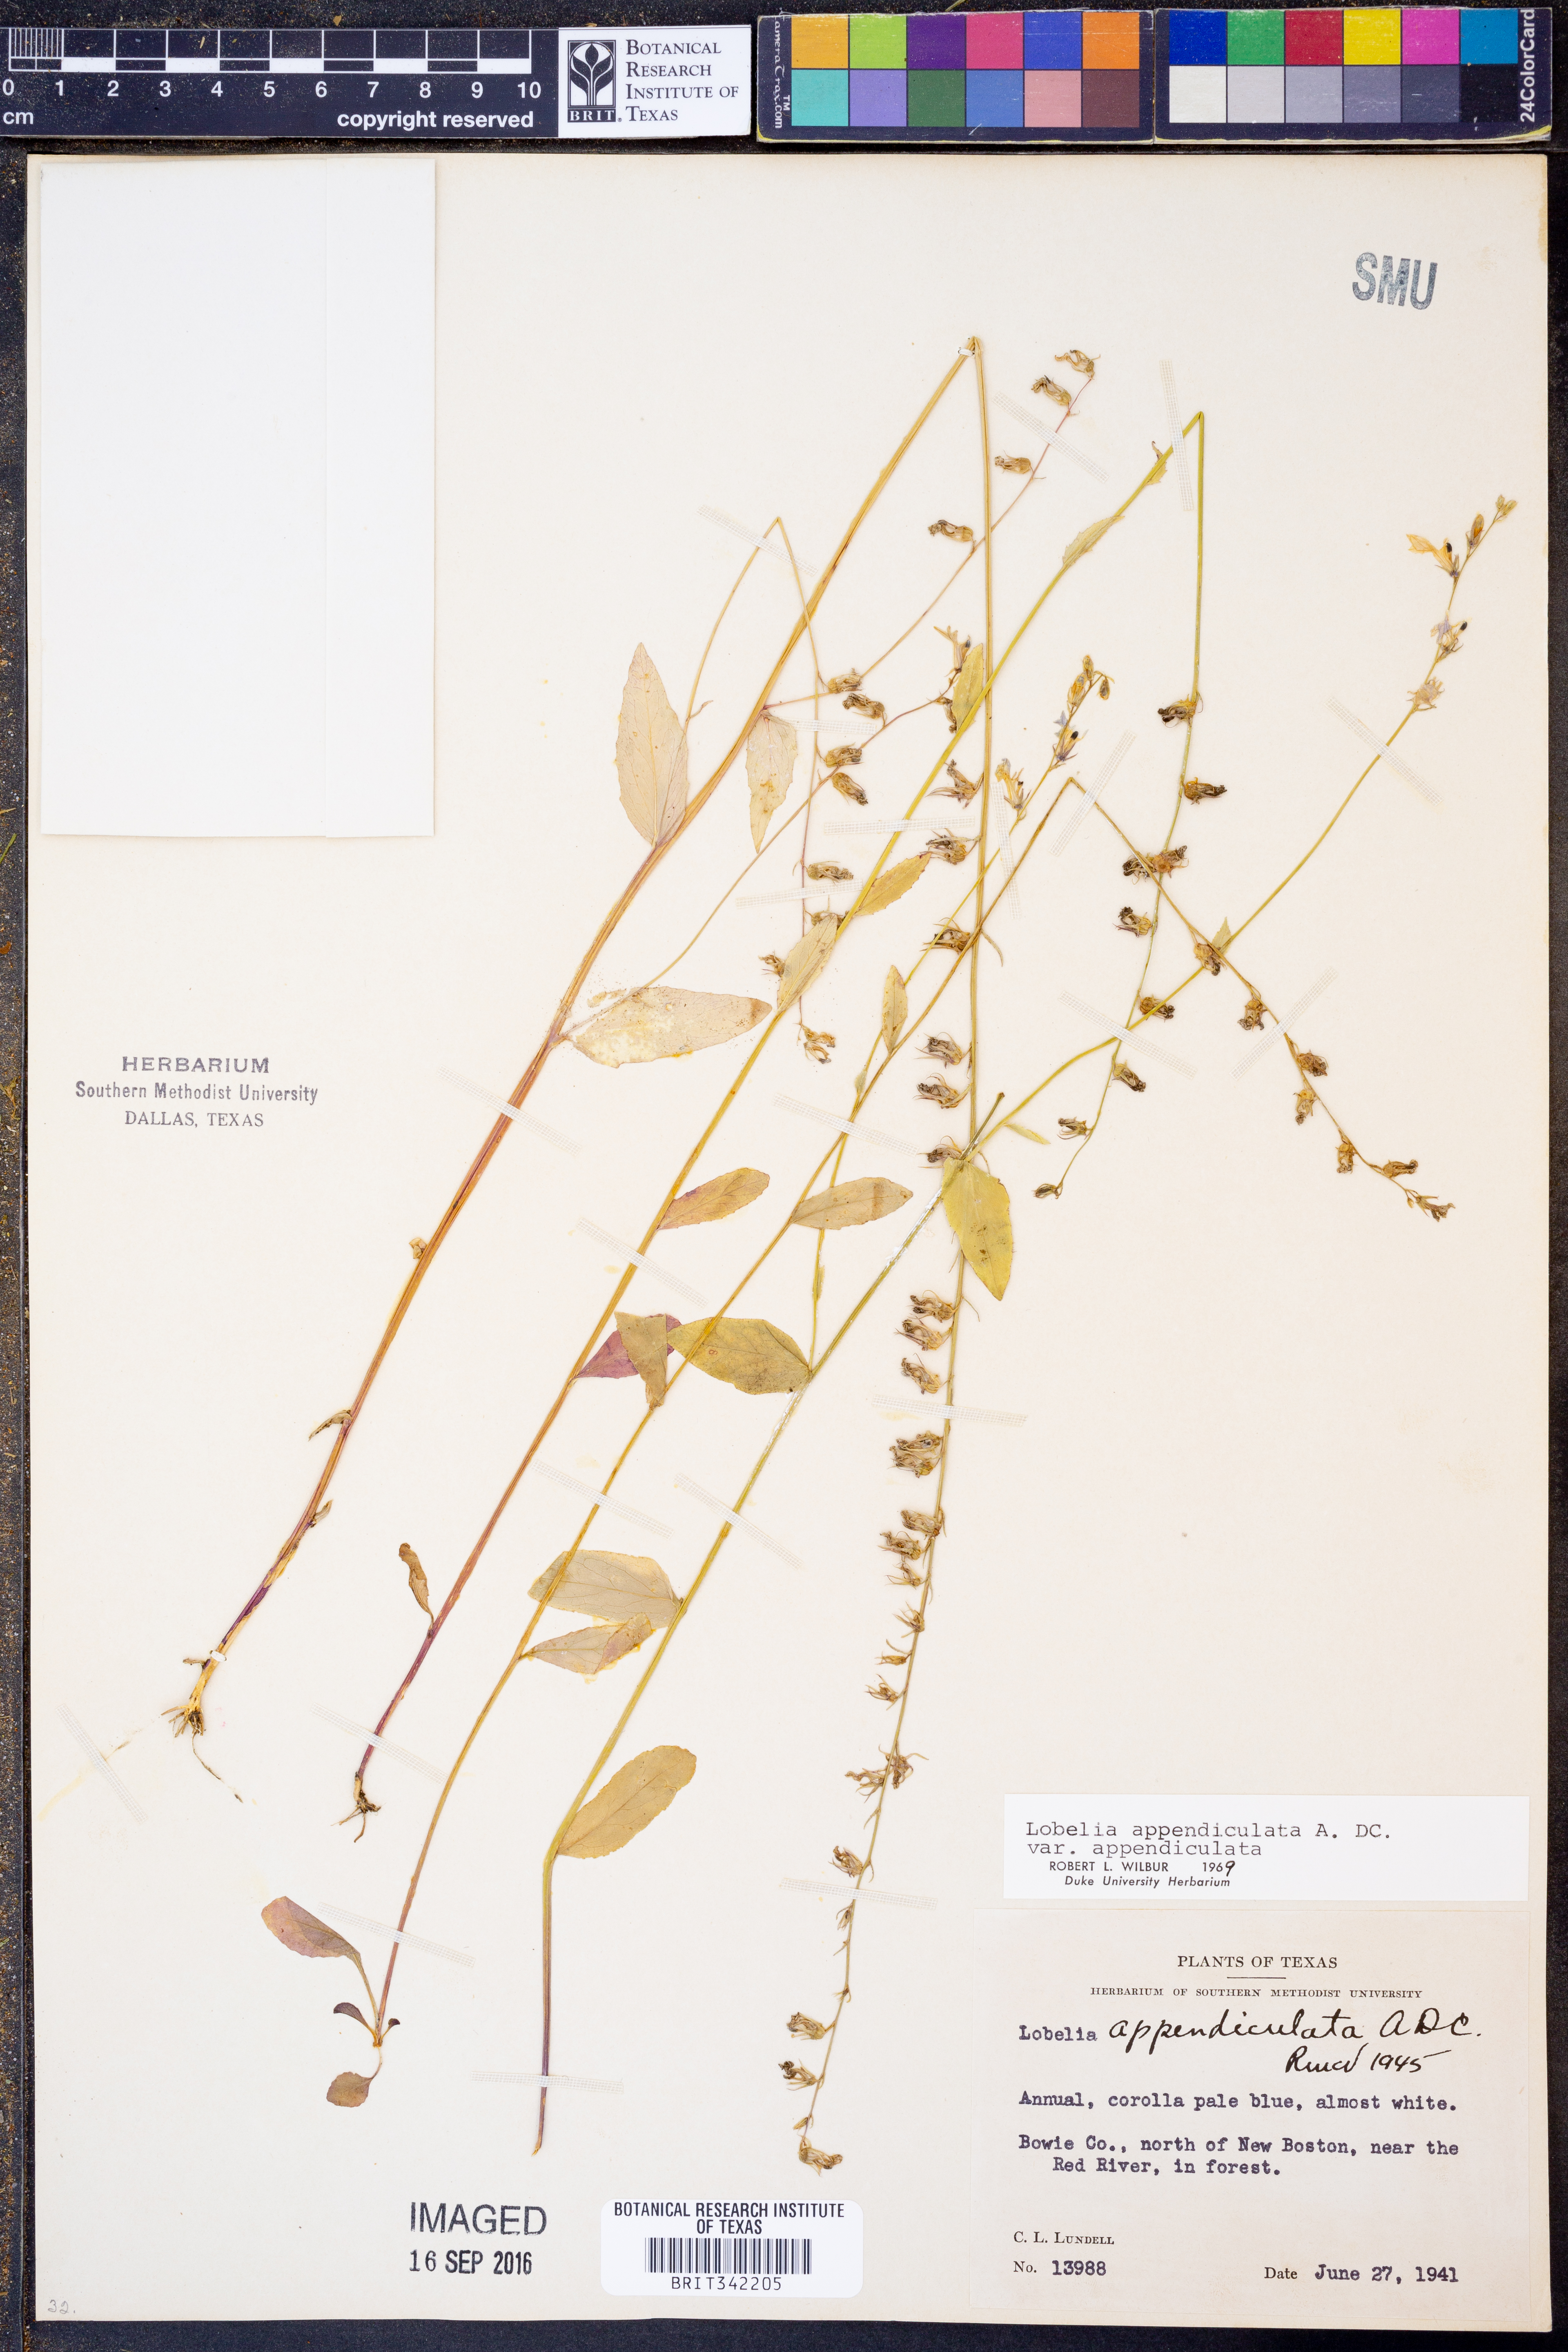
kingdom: Plantae
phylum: Tracheophyta
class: Magnoliopsida
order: Asterales
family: Campanulaceae
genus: Lobelia
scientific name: Lobelia appendiculata
